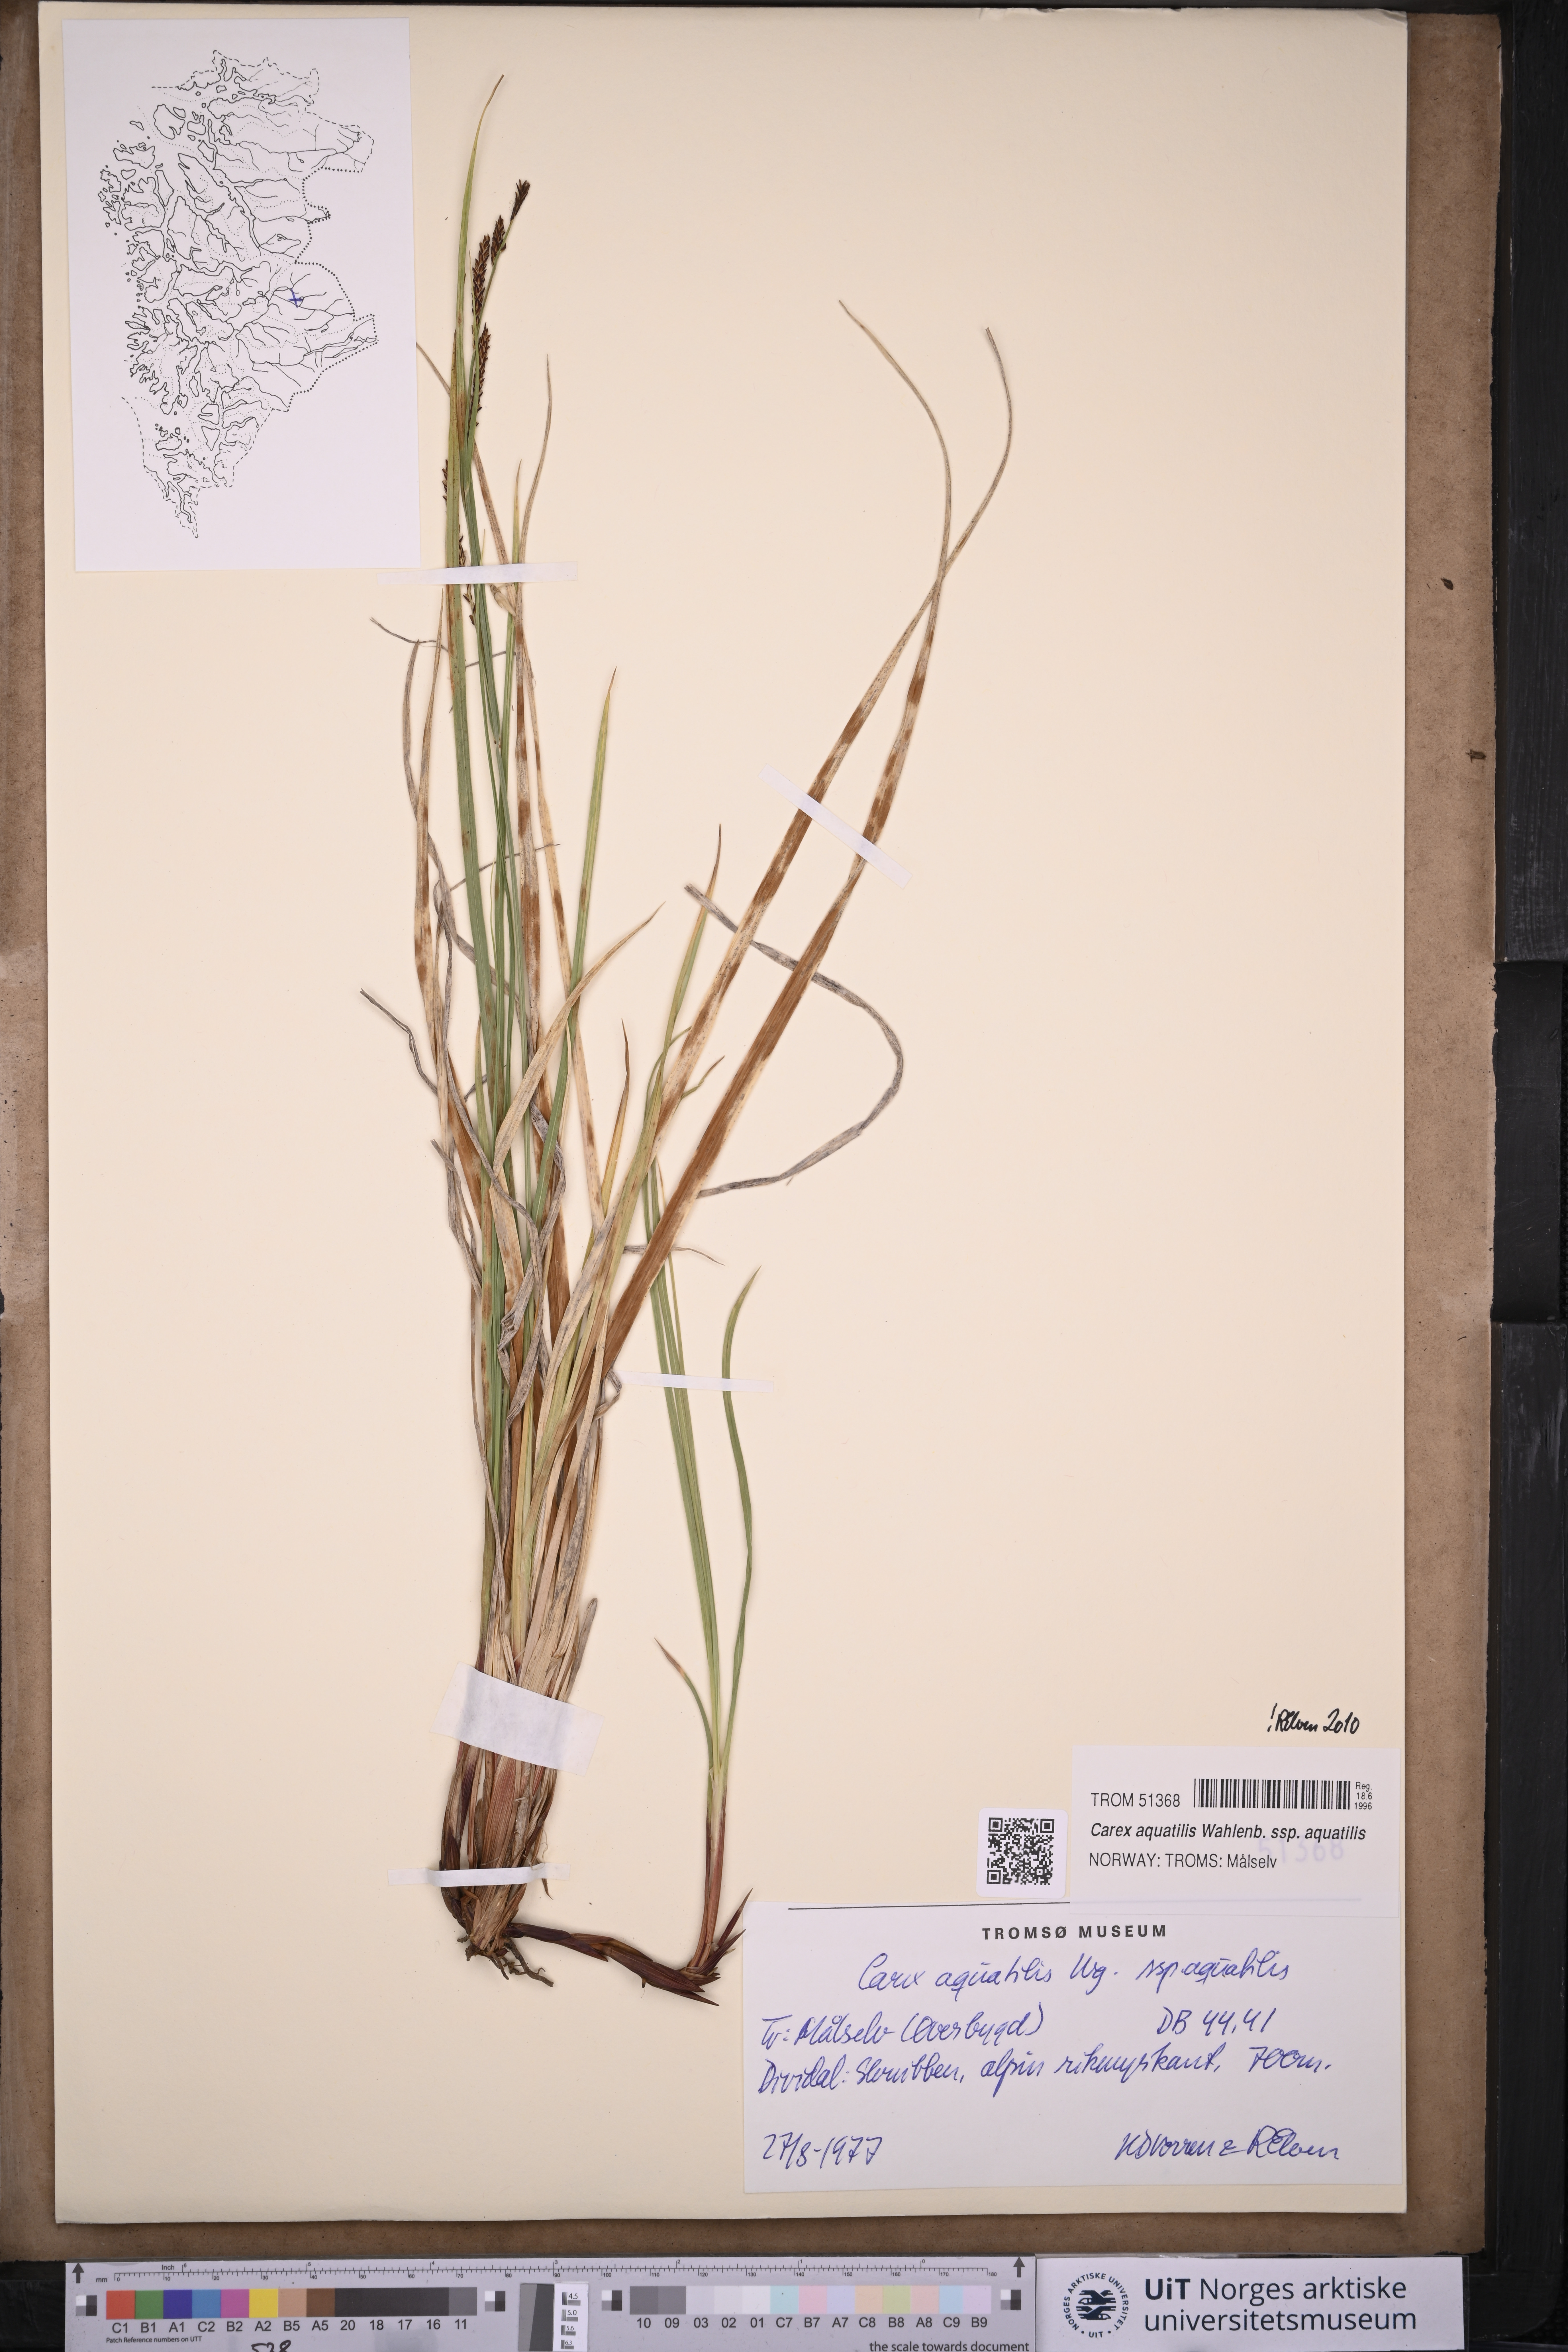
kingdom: Plantae
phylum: Tracheophyta
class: Liliopsida
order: Poales
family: Cyperaceae
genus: Carex
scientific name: Carex aquatilis
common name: Water sedge
